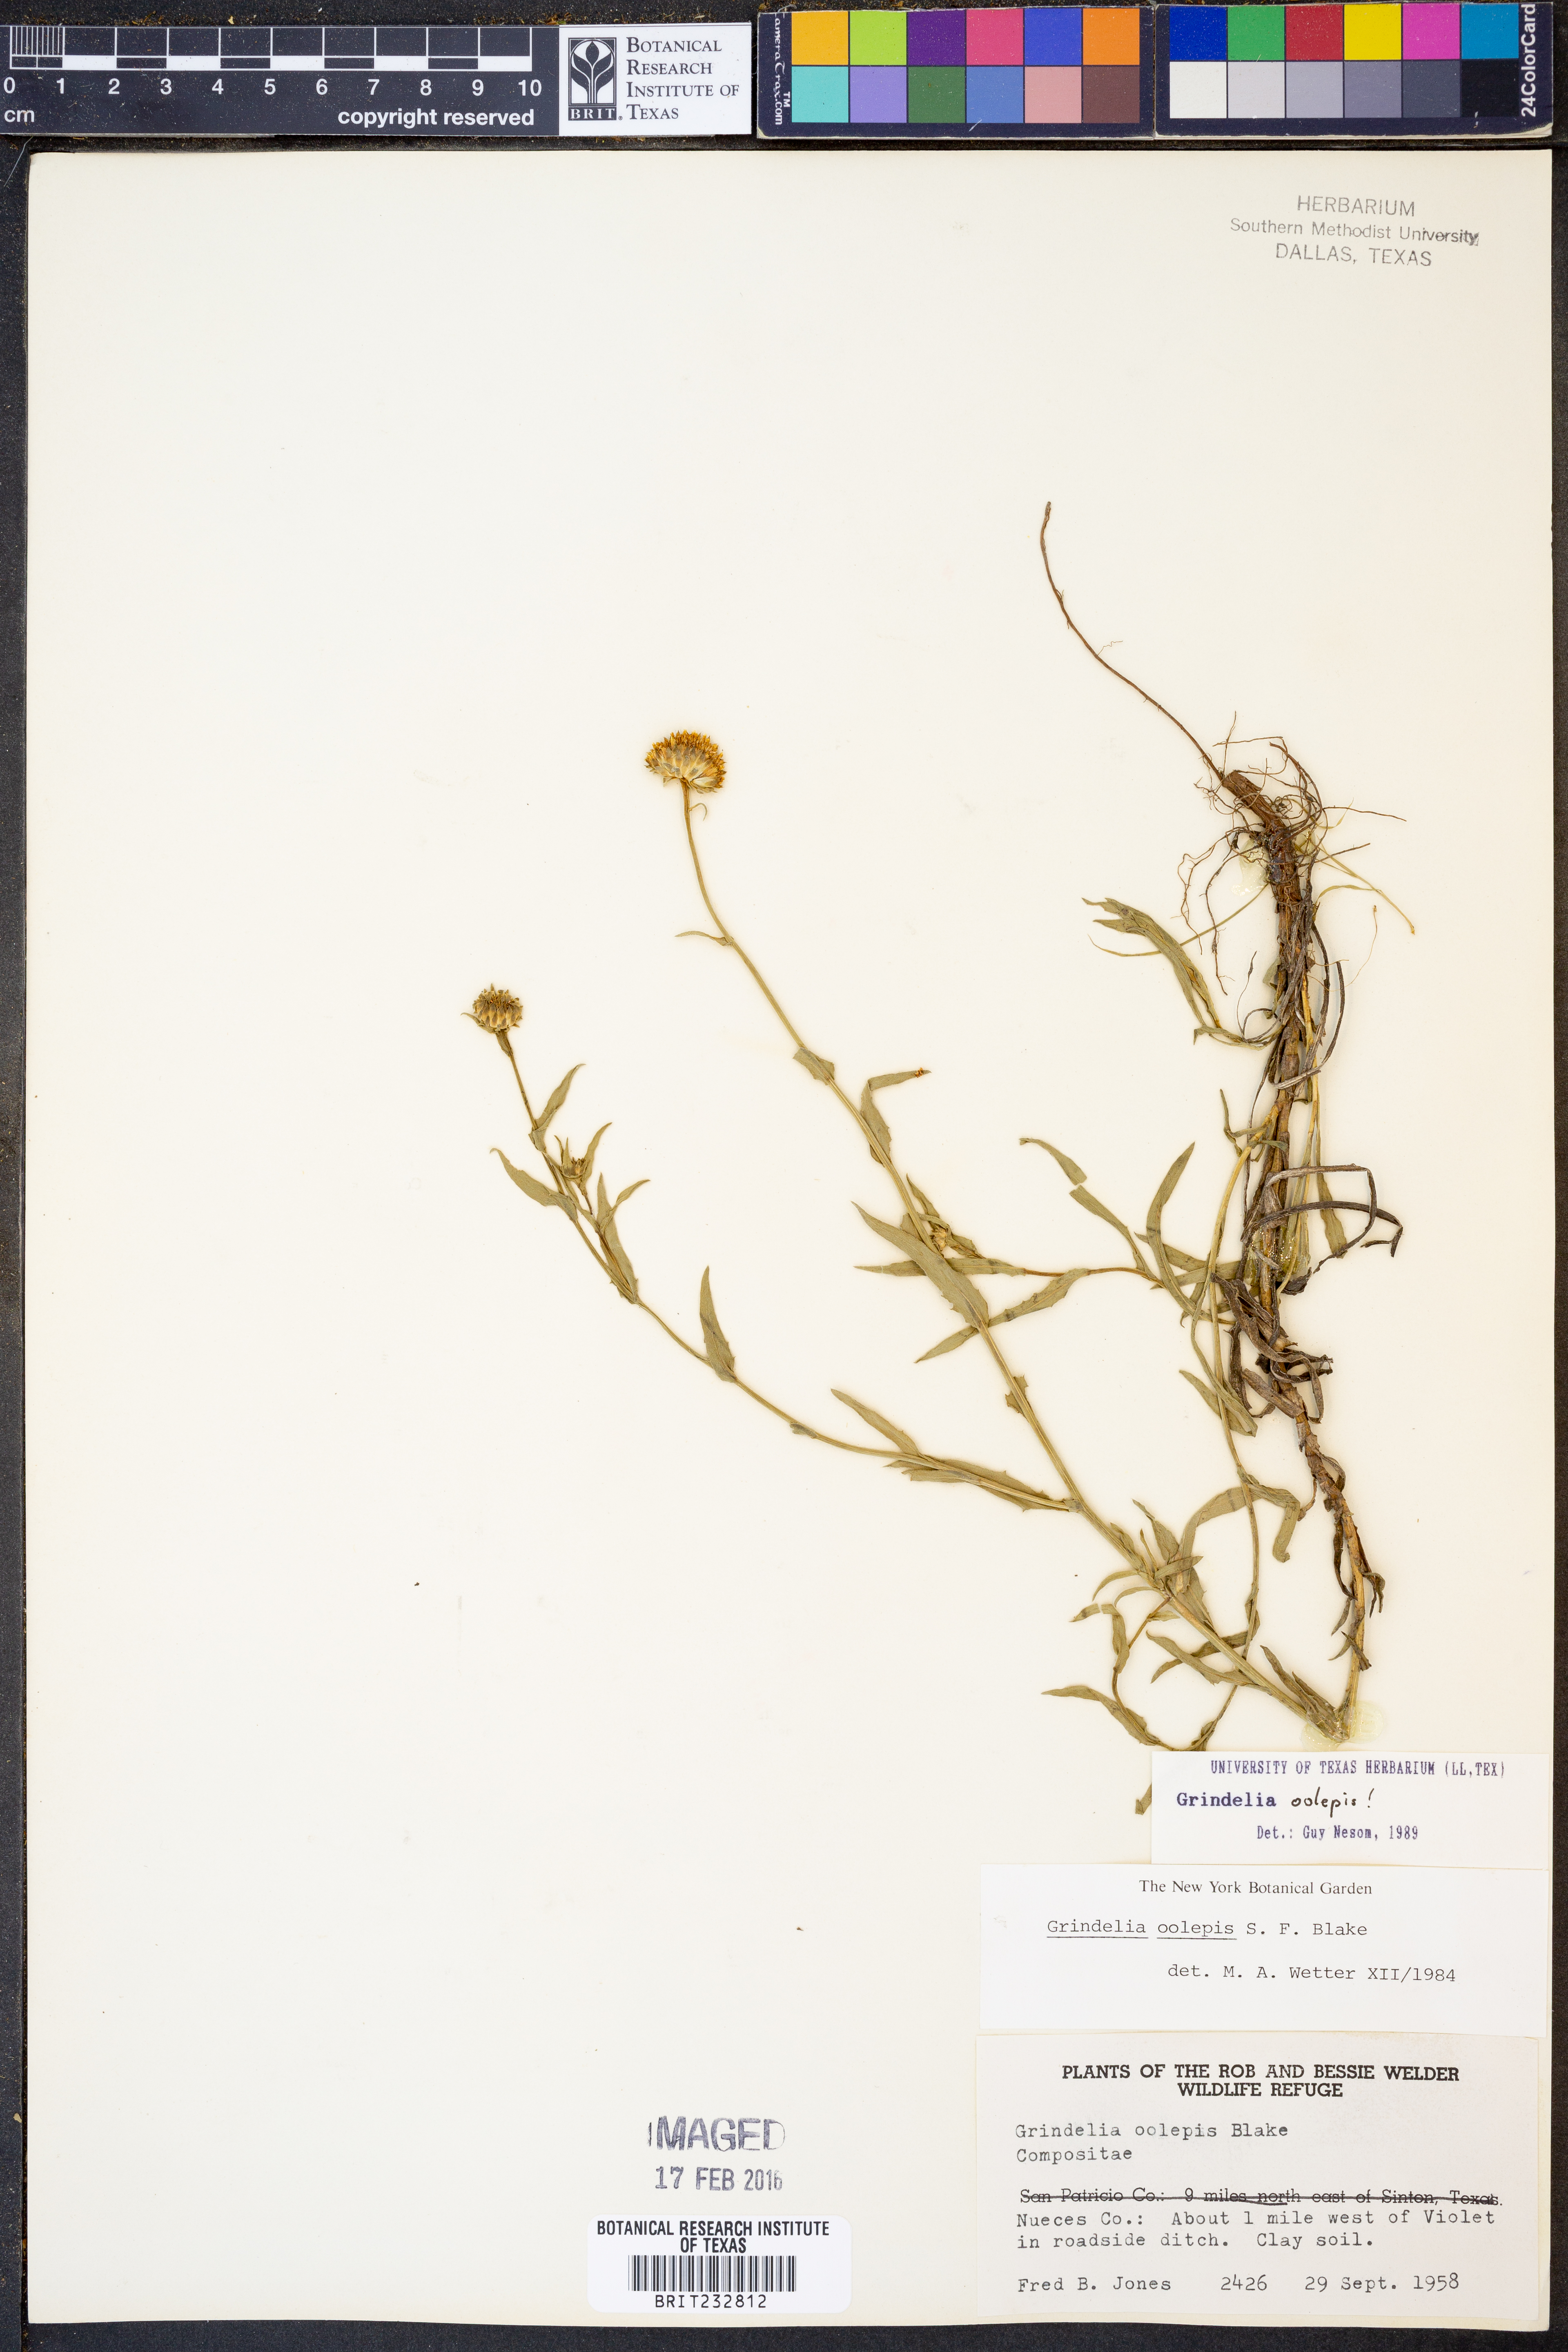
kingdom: Plantae
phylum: Tracheophyta
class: Magnoliopsida
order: Asterales
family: Asteraceae
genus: Grindelia
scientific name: Grindelia oolepis
